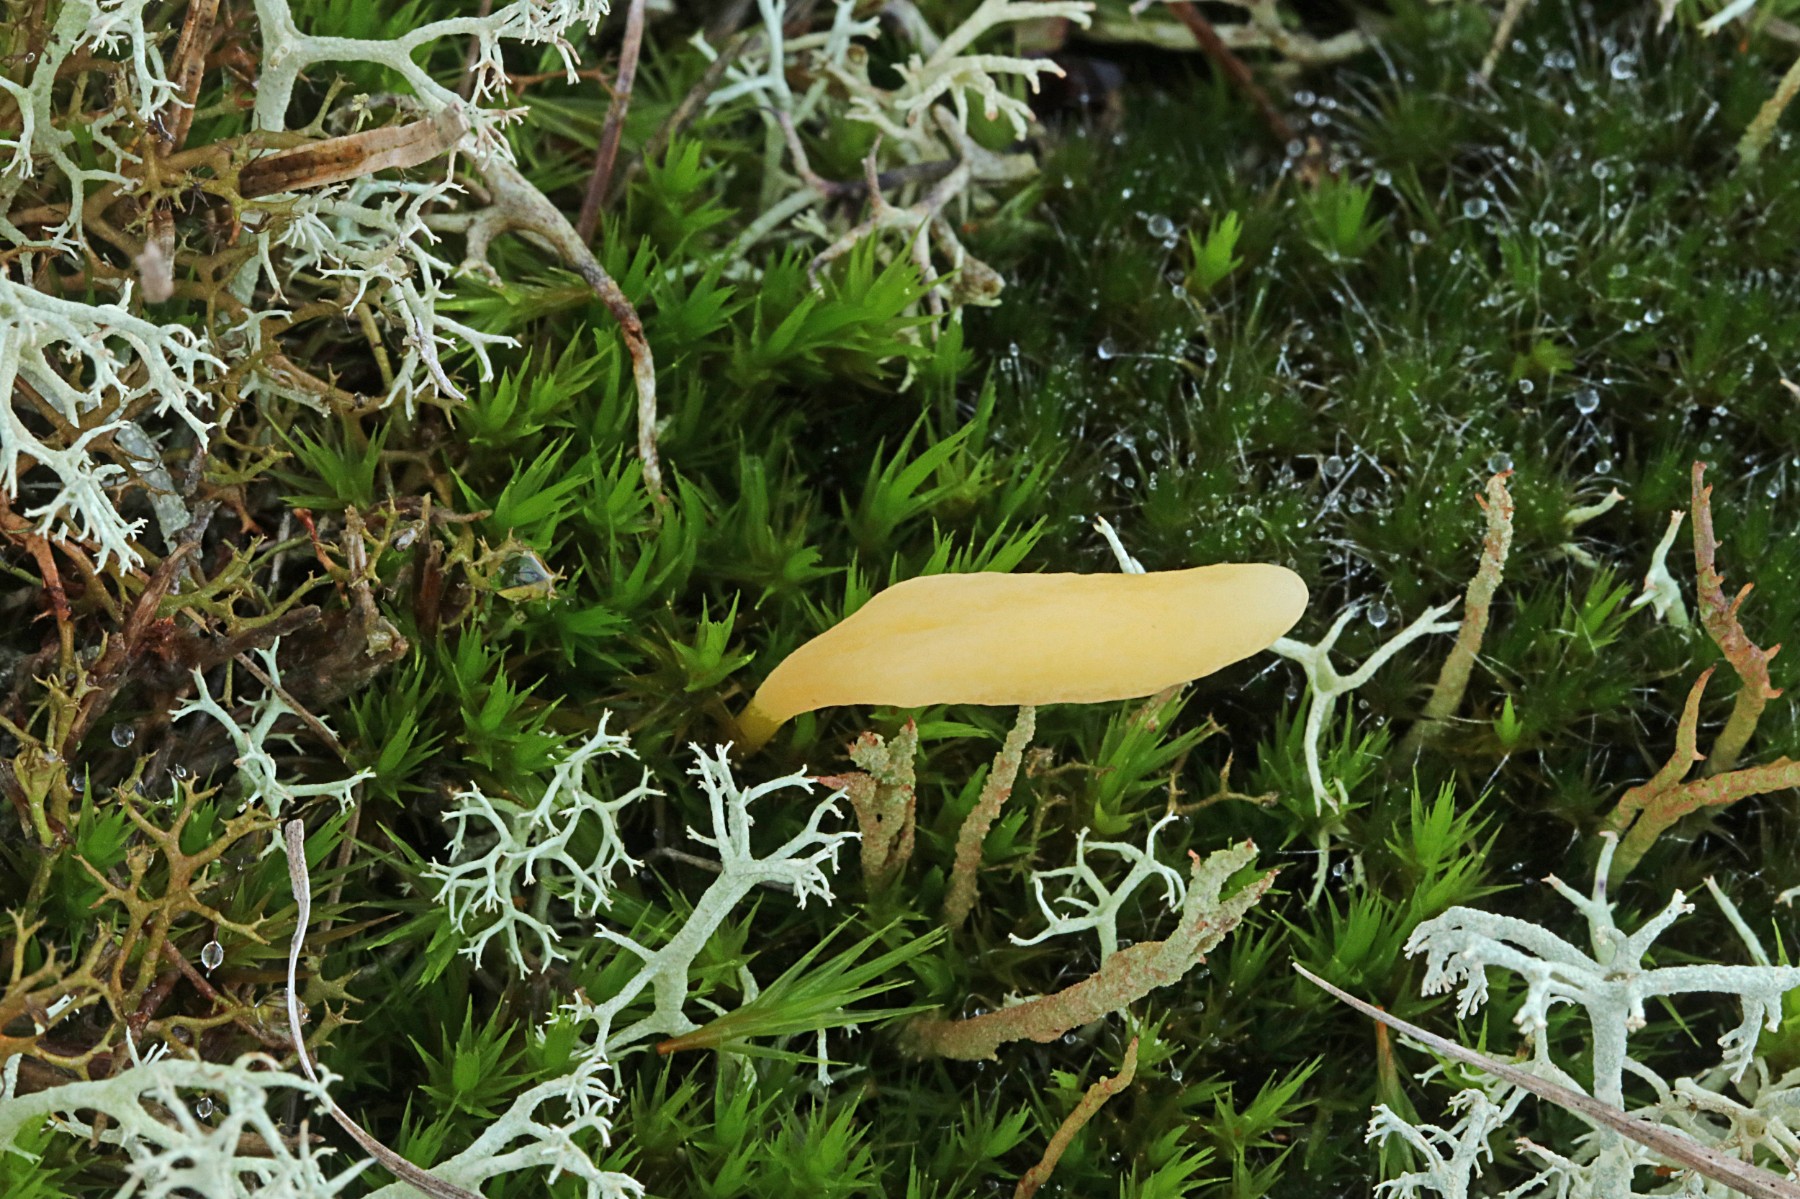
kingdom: Fungi
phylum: Basidiomycota
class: Agaricomycetes
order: Agaricales
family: Clavariaceae
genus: Clavaria
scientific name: Clavaria argillacea
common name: lerfarvet køllesvamp
